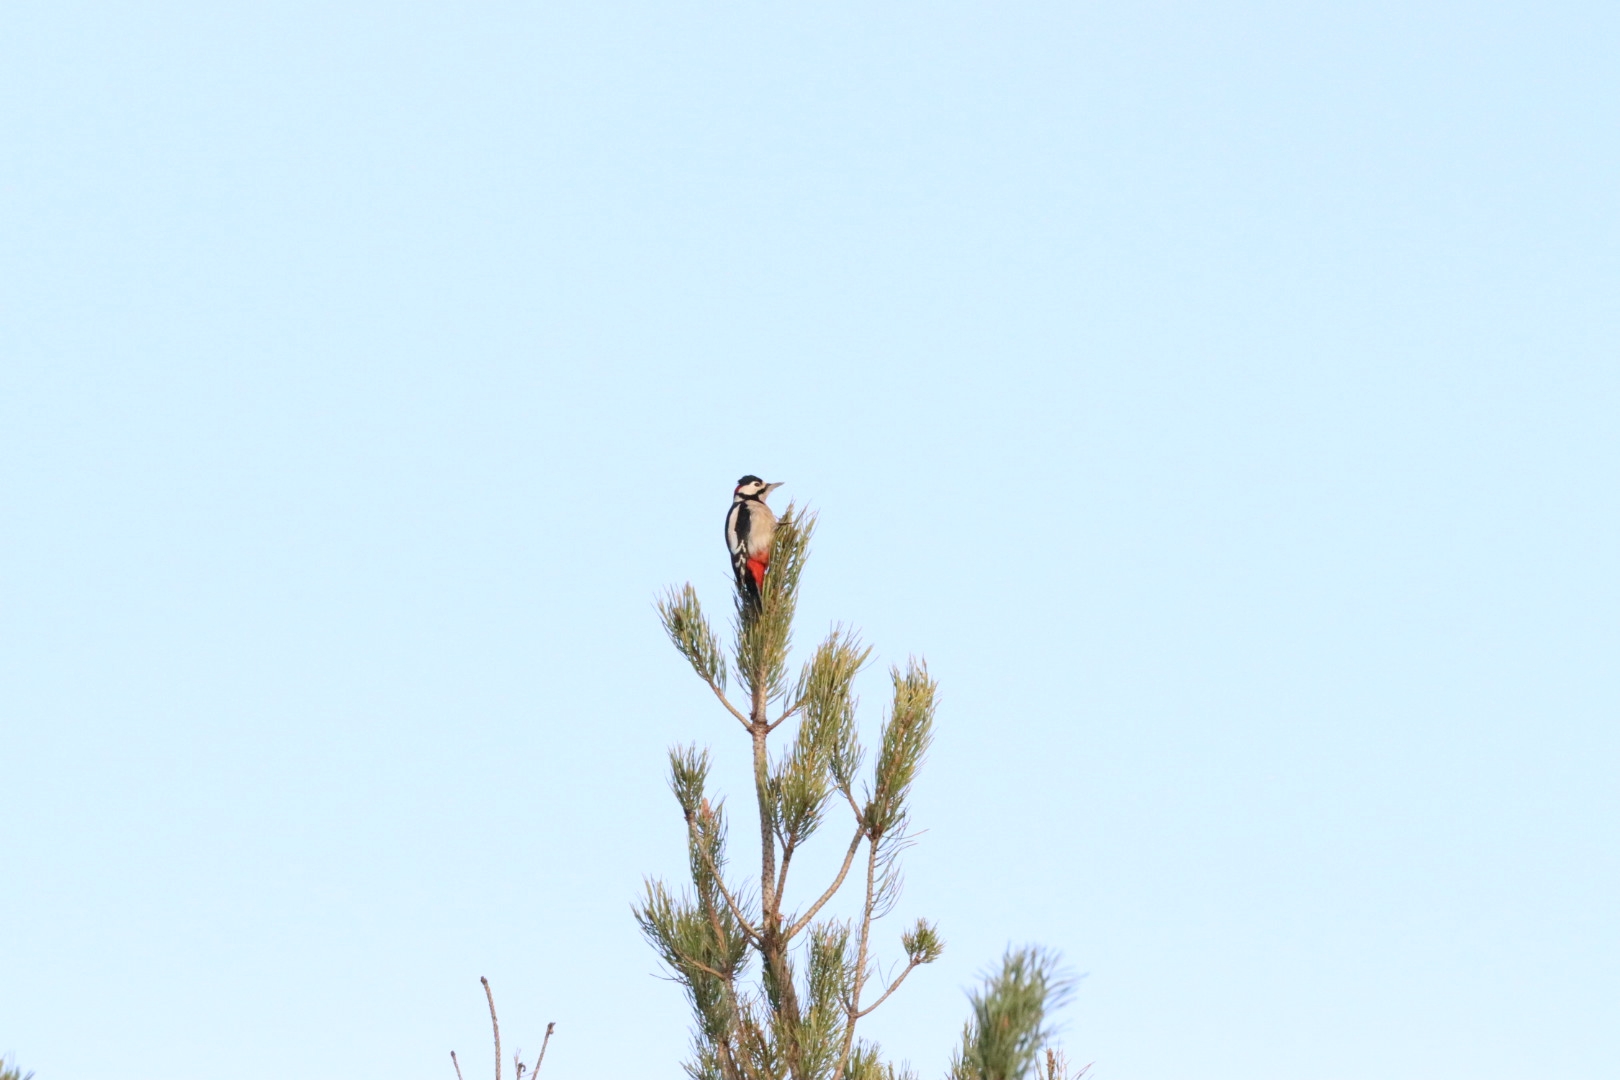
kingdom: Animalia
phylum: Chordata
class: Aves
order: Piciformes
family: Picidae
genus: Dendrocopos
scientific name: Dendrocopos major
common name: Stor flagspætte
